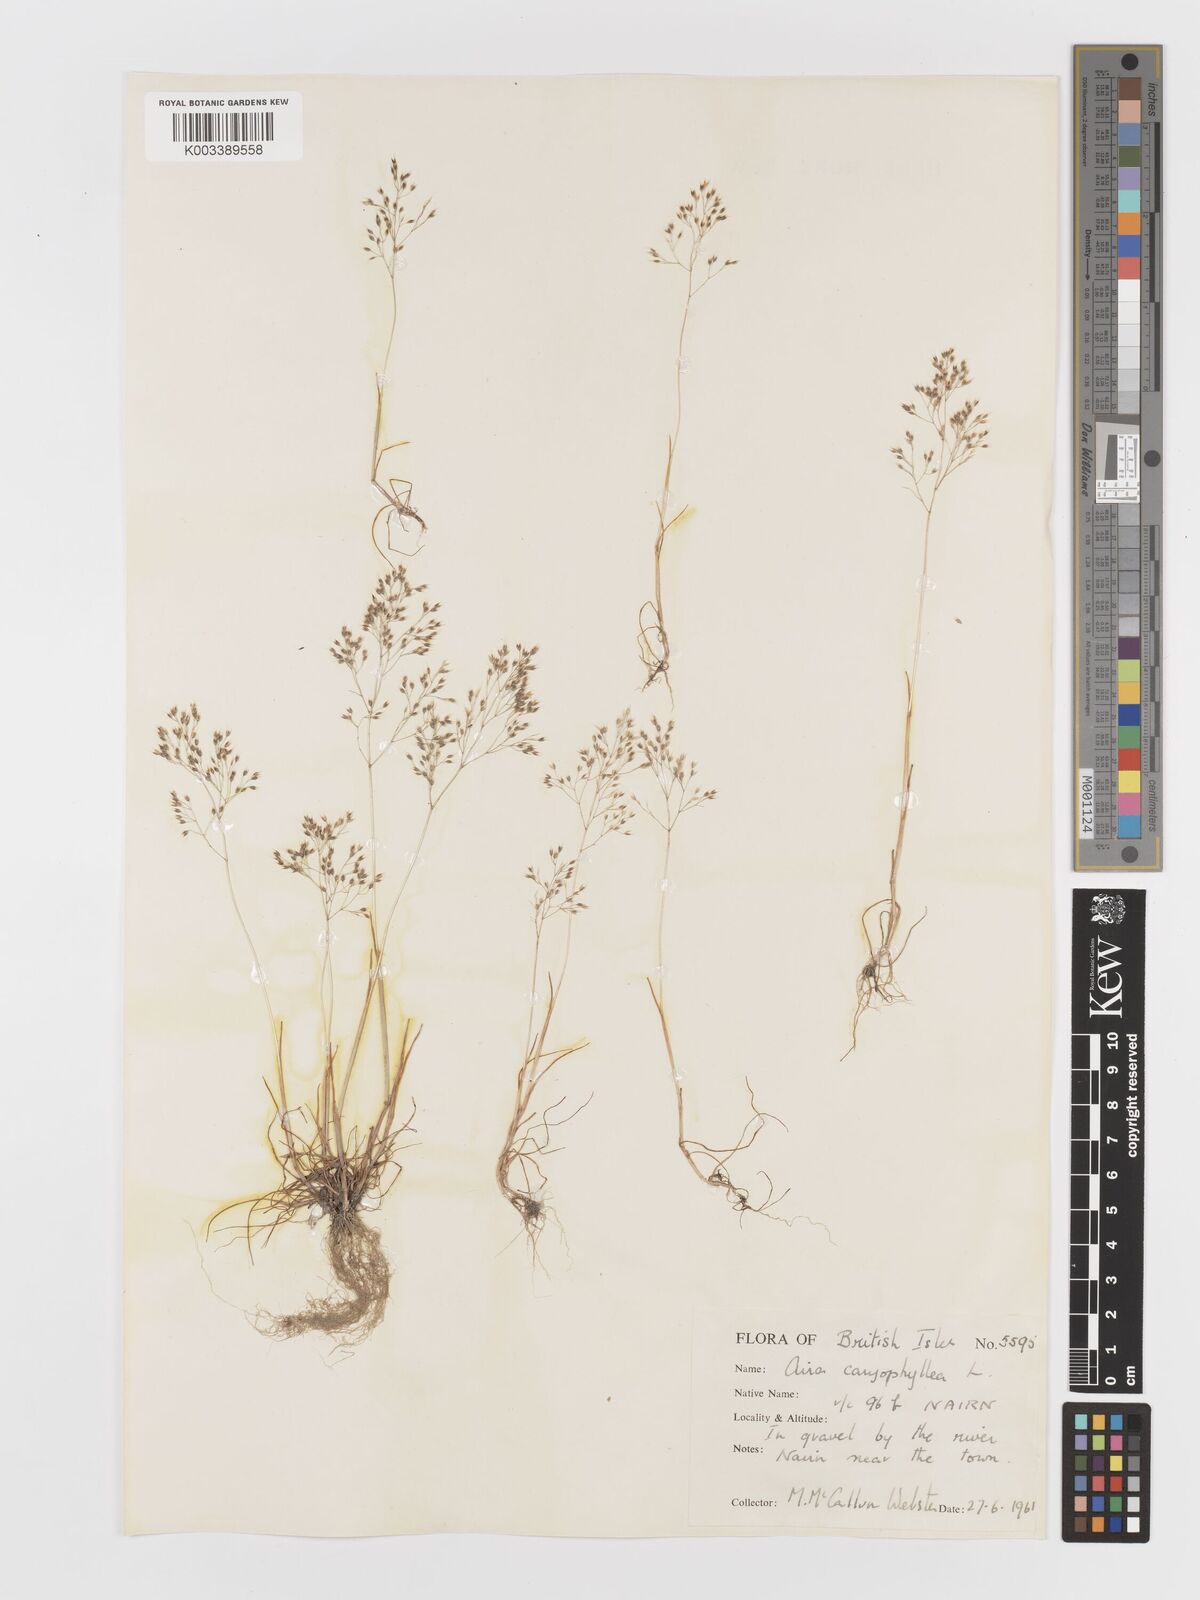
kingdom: Plantae
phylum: Tracheophyta
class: Liliopsida
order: Poales
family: Poaceae
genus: Aira
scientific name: Aira caryophyllea
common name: Silver hairgrass
